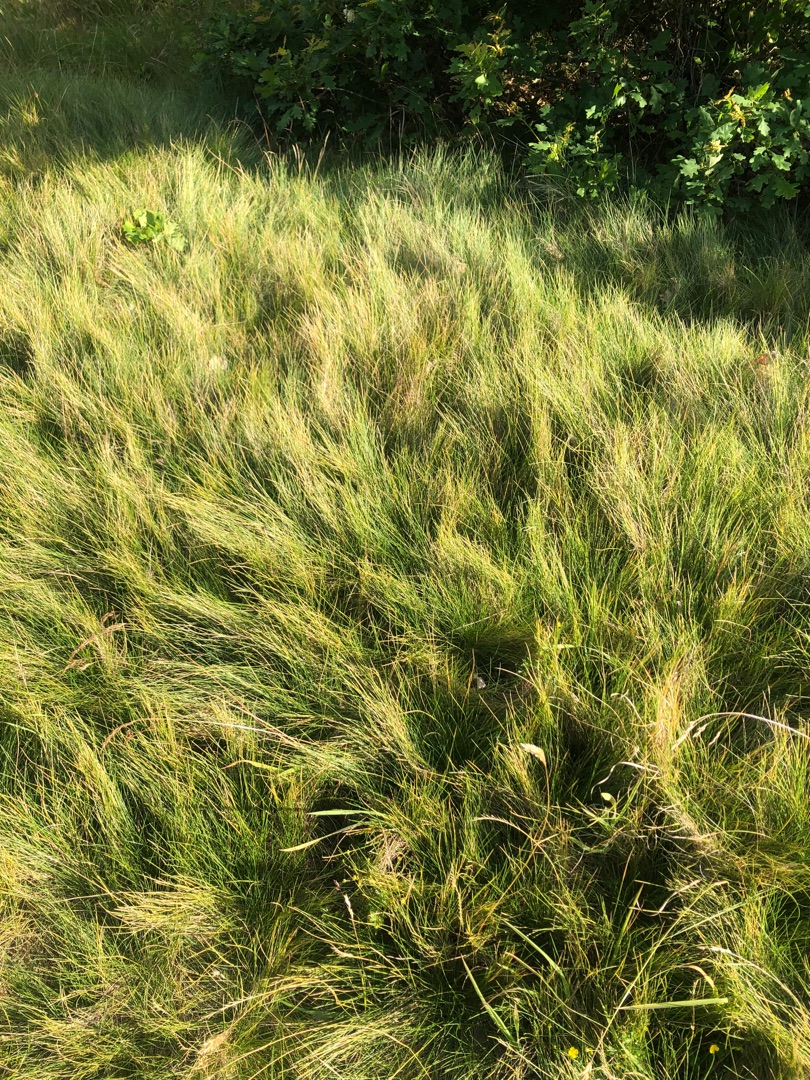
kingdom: Plantae
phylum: Tracheophyta
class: Liliopsida
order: Poales
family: Poaceae
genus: Nardus
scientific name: Nardus stricta
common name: Katteskæg
